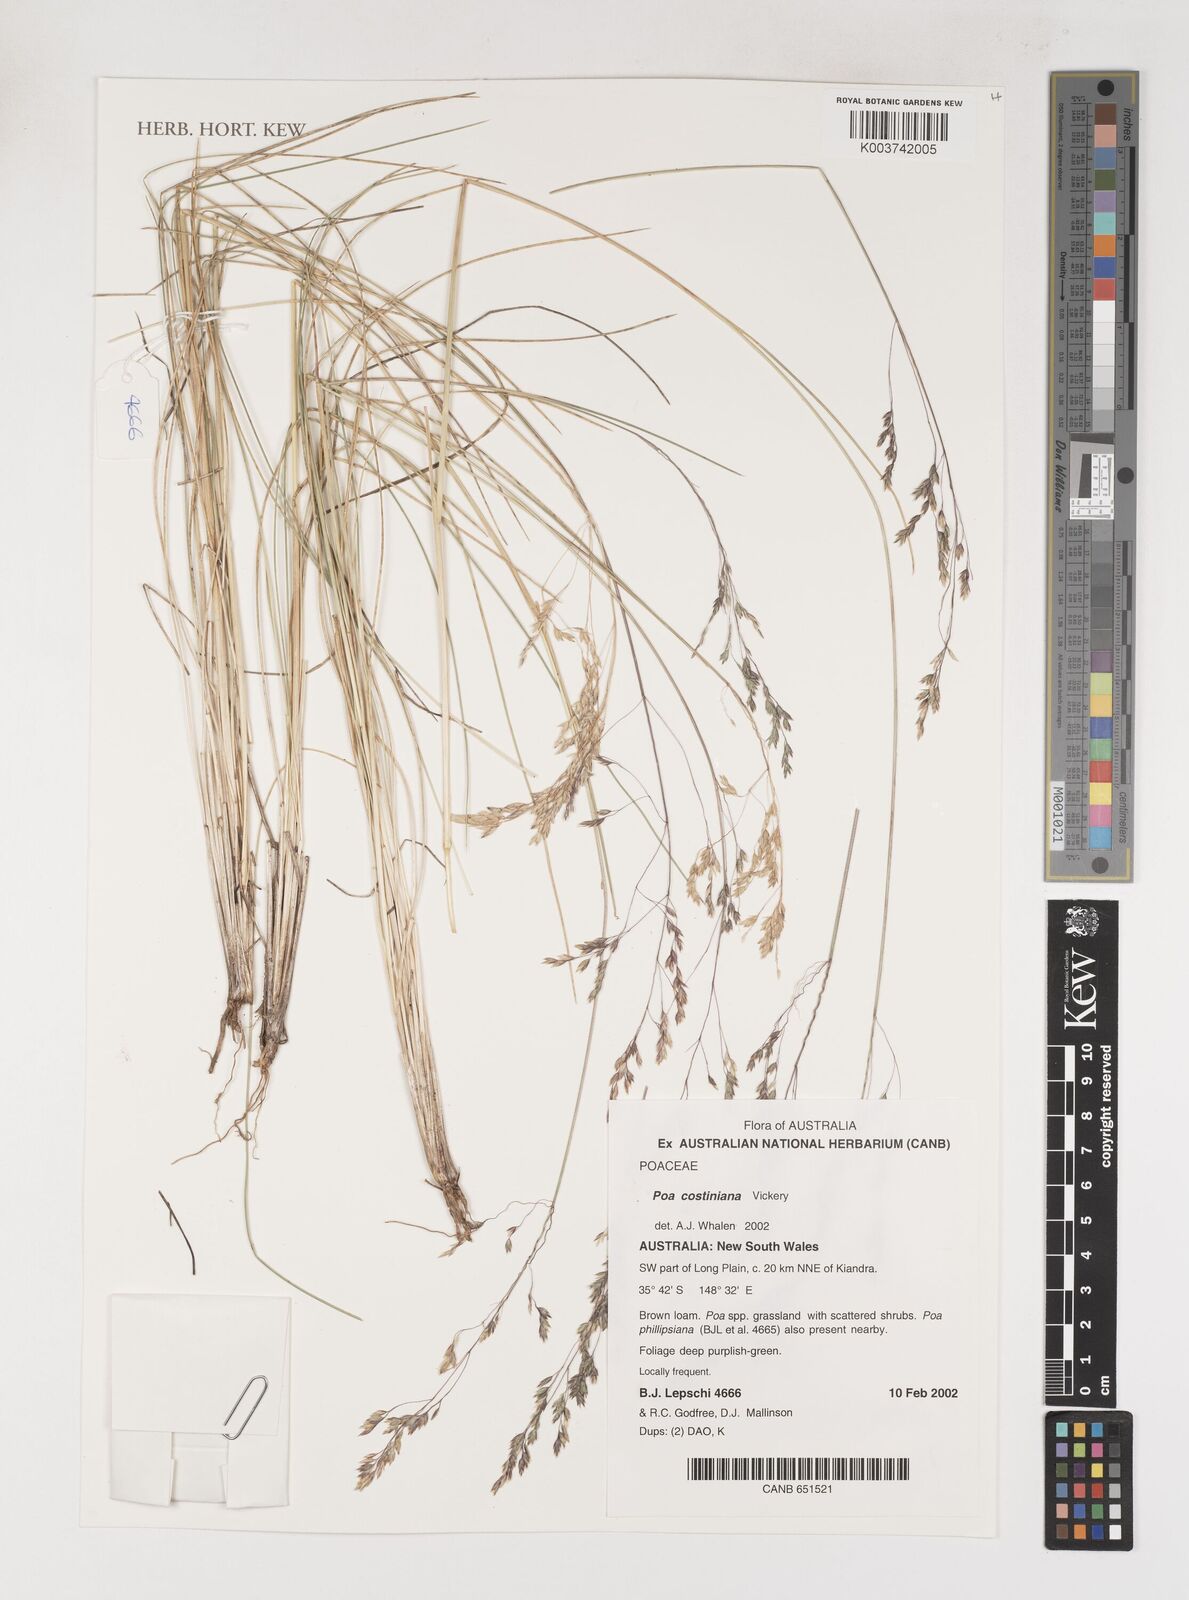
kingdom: Plantae
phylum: Tracheophyta
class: Liliopsida
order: Poales
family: Poaceae
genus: Poa
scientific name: Poa costiniana
